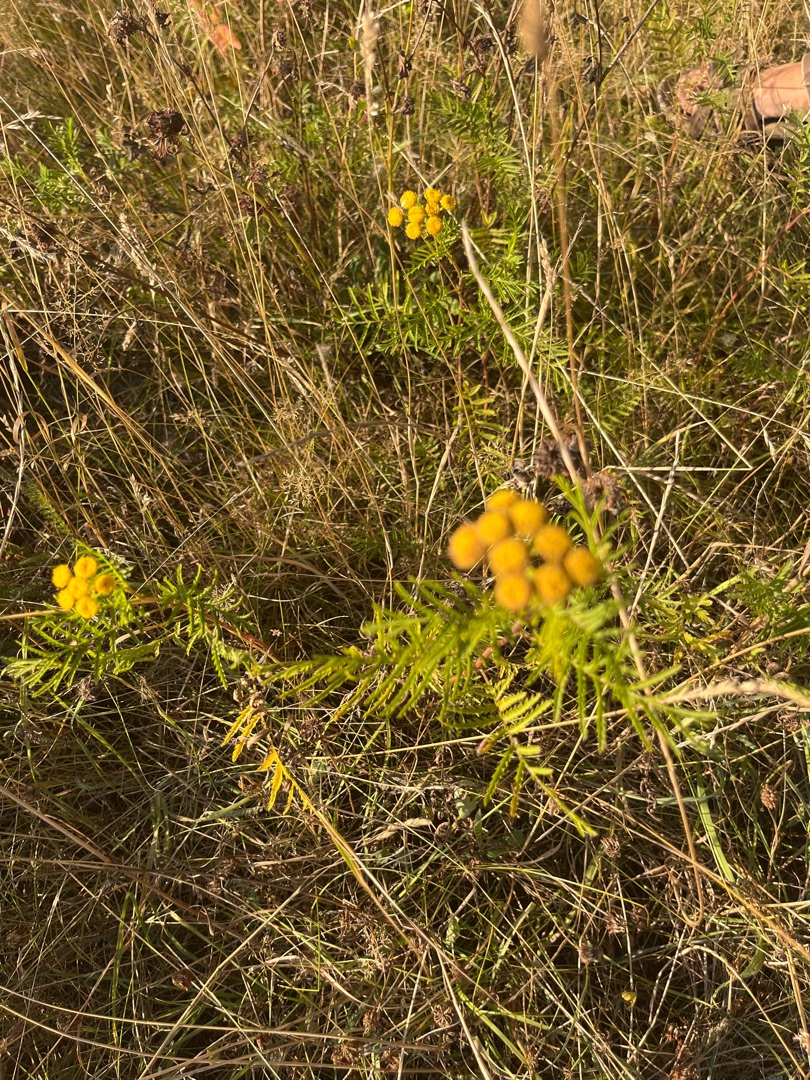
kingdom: Plantae
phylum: Tracheophyta
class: Magnoliopsida
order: Asterales
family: Asteraceae
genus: Tanacetum
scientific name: Tanacetum vulgare
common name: Rejnfan
